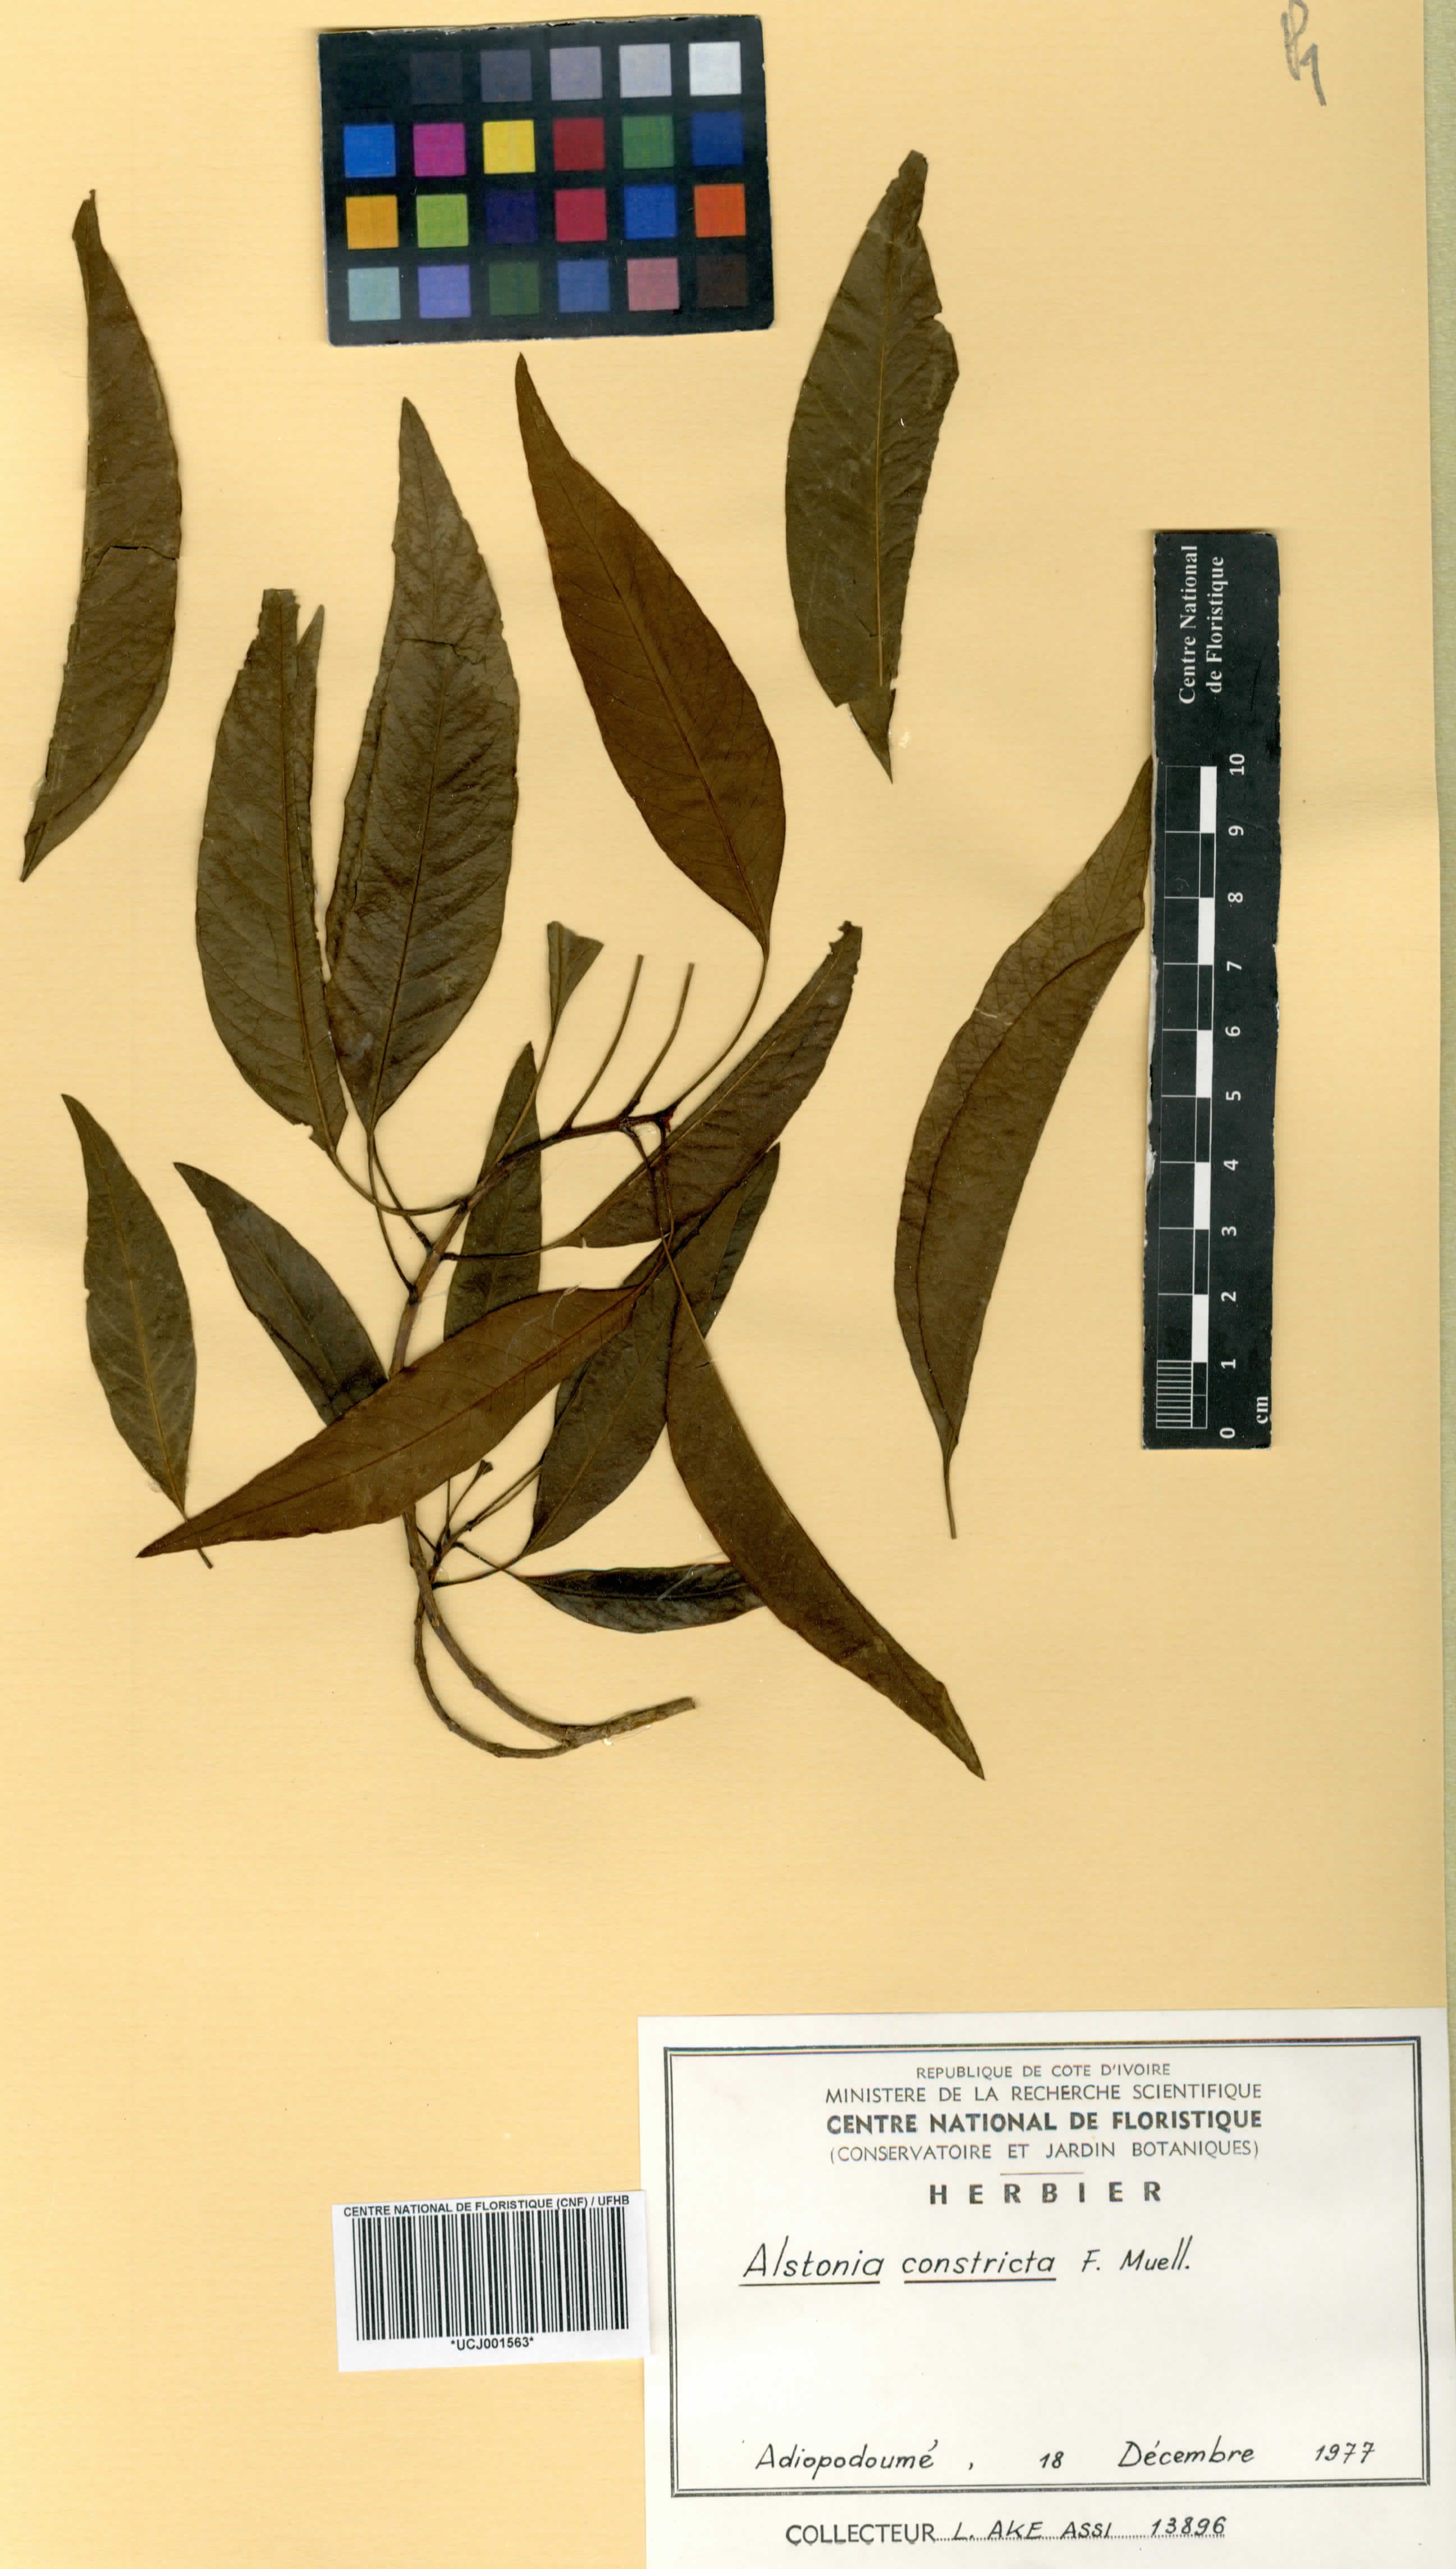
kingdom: Plantae
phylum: Tracheophyta
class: Magnoliopsida
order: Gentianales
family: Apocynaceae
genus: Alstonia
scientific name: Alstonia mollis
